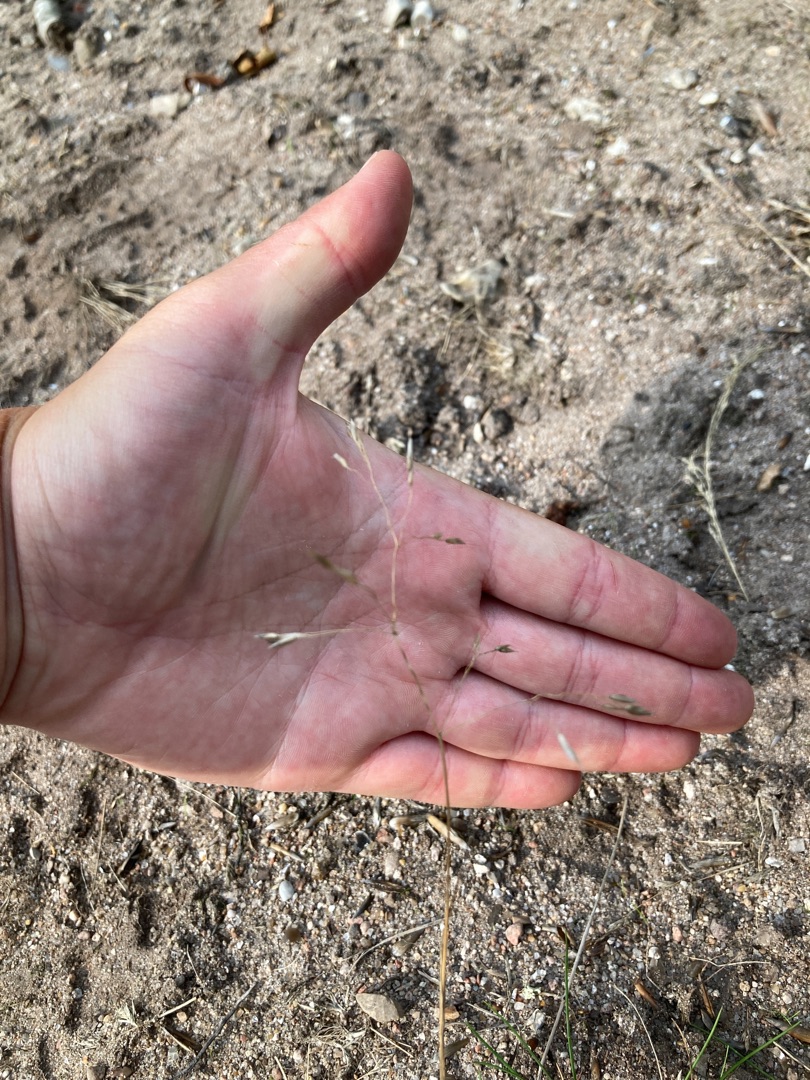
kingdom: Plantae
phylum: Tracheophyta
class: Liliopsida
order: Poales
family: Poaceae
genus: Avenella
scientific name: Avenella flexuosa
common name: Bølget bunke
